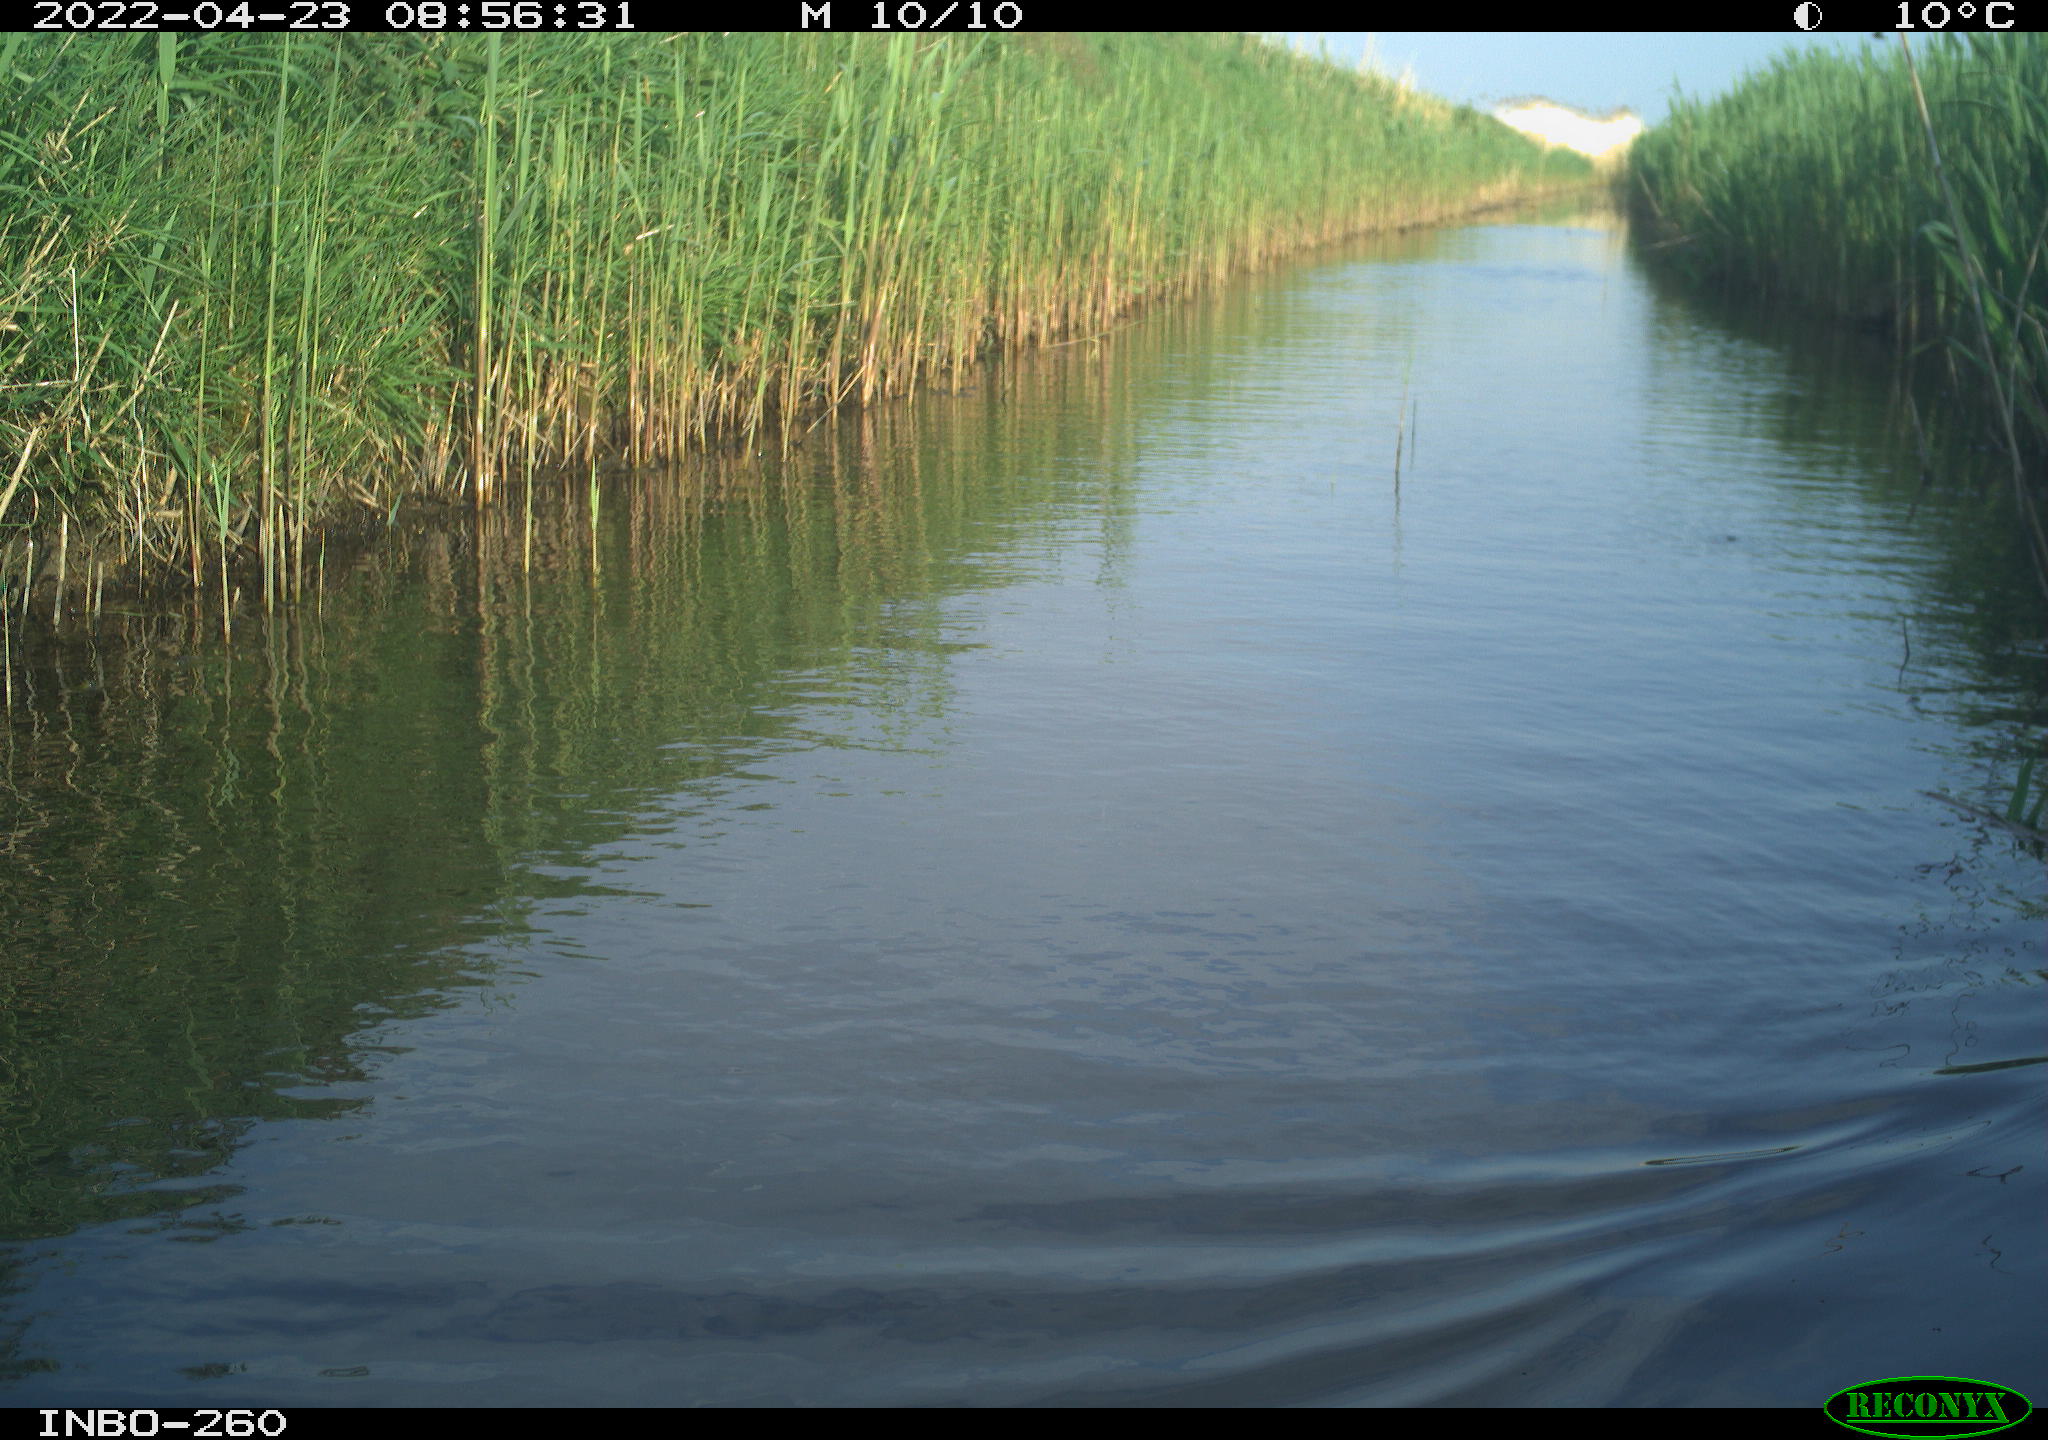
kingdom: Animalia
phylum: Chordata
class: Aves
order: Gruiformes
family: Rallidae
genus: Fulica
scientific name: Fulica atra
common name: Eurasian coot
